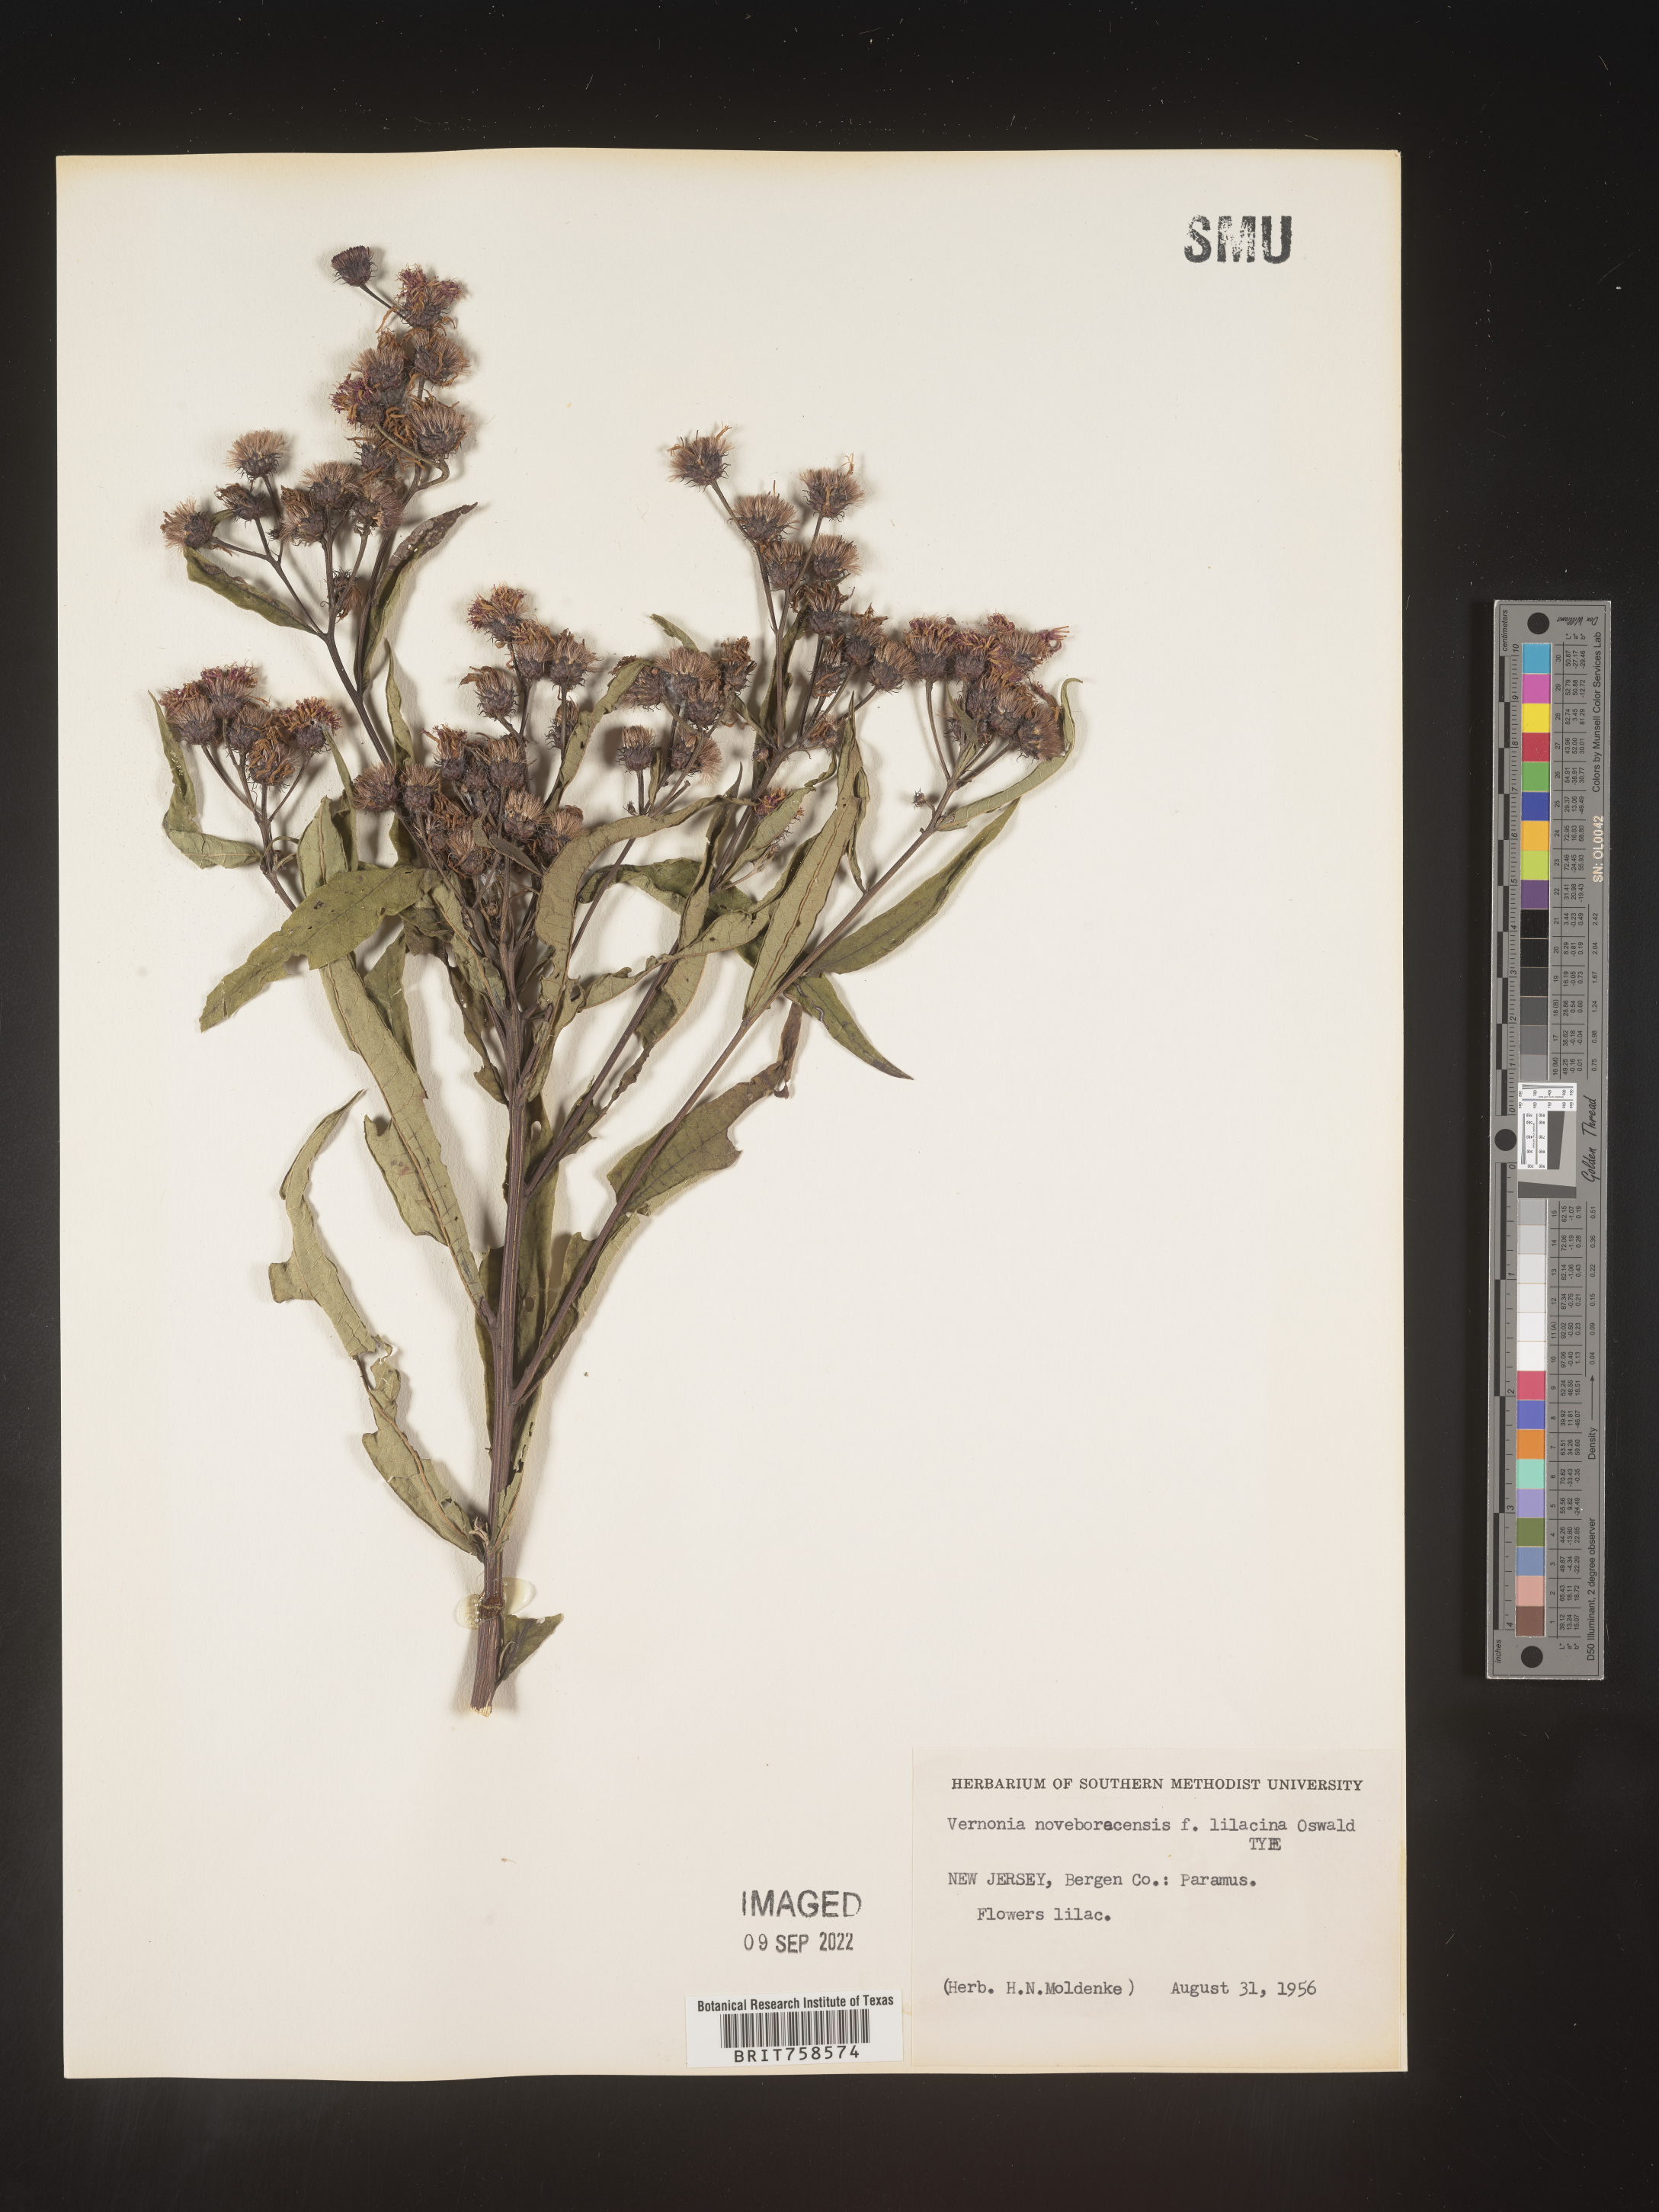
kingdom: Plantae
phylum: Tracheophyta
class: Magnoliopsida
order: Asterales
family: Asteraceae
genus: Vernonia
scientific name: Vernonia noveboracensis
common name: New york ironweed
